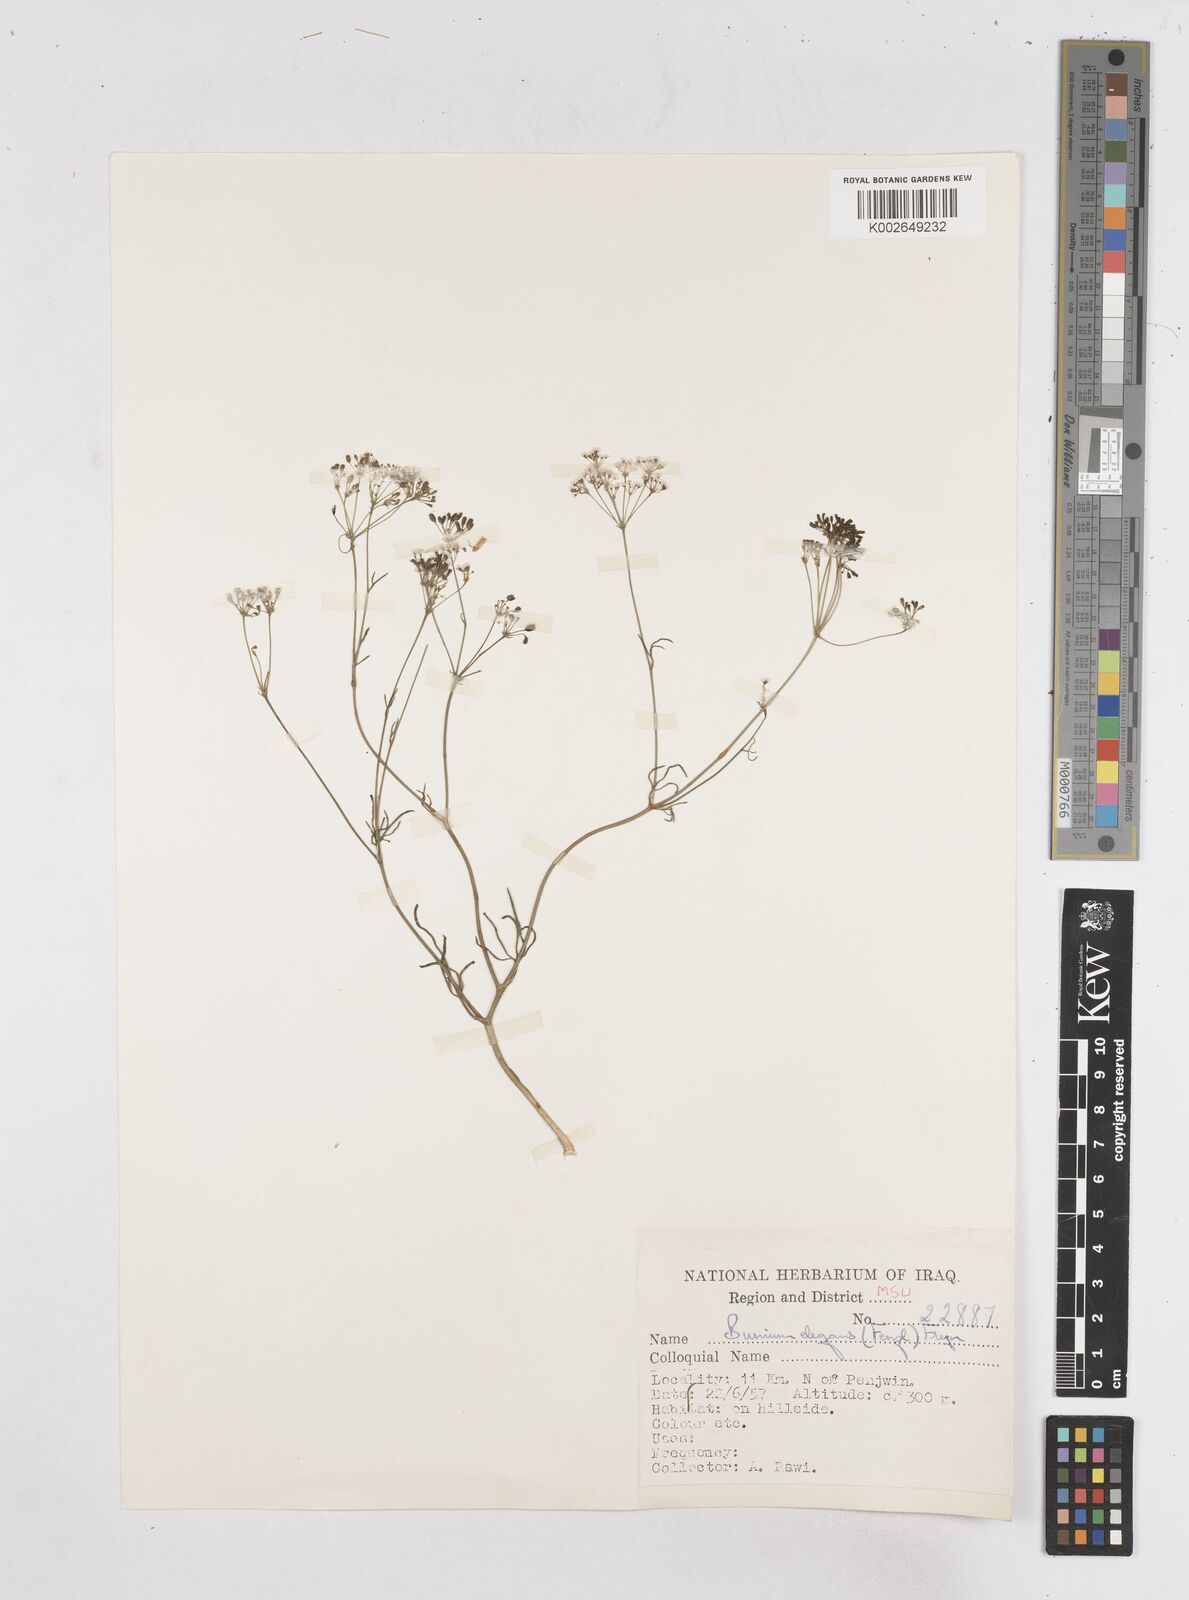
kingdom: Plantae
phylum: Tracheophyta
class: Magnoliopsida
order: Apiales
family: Apiaceae
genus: Bunium
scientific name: Bunium paucifolium
